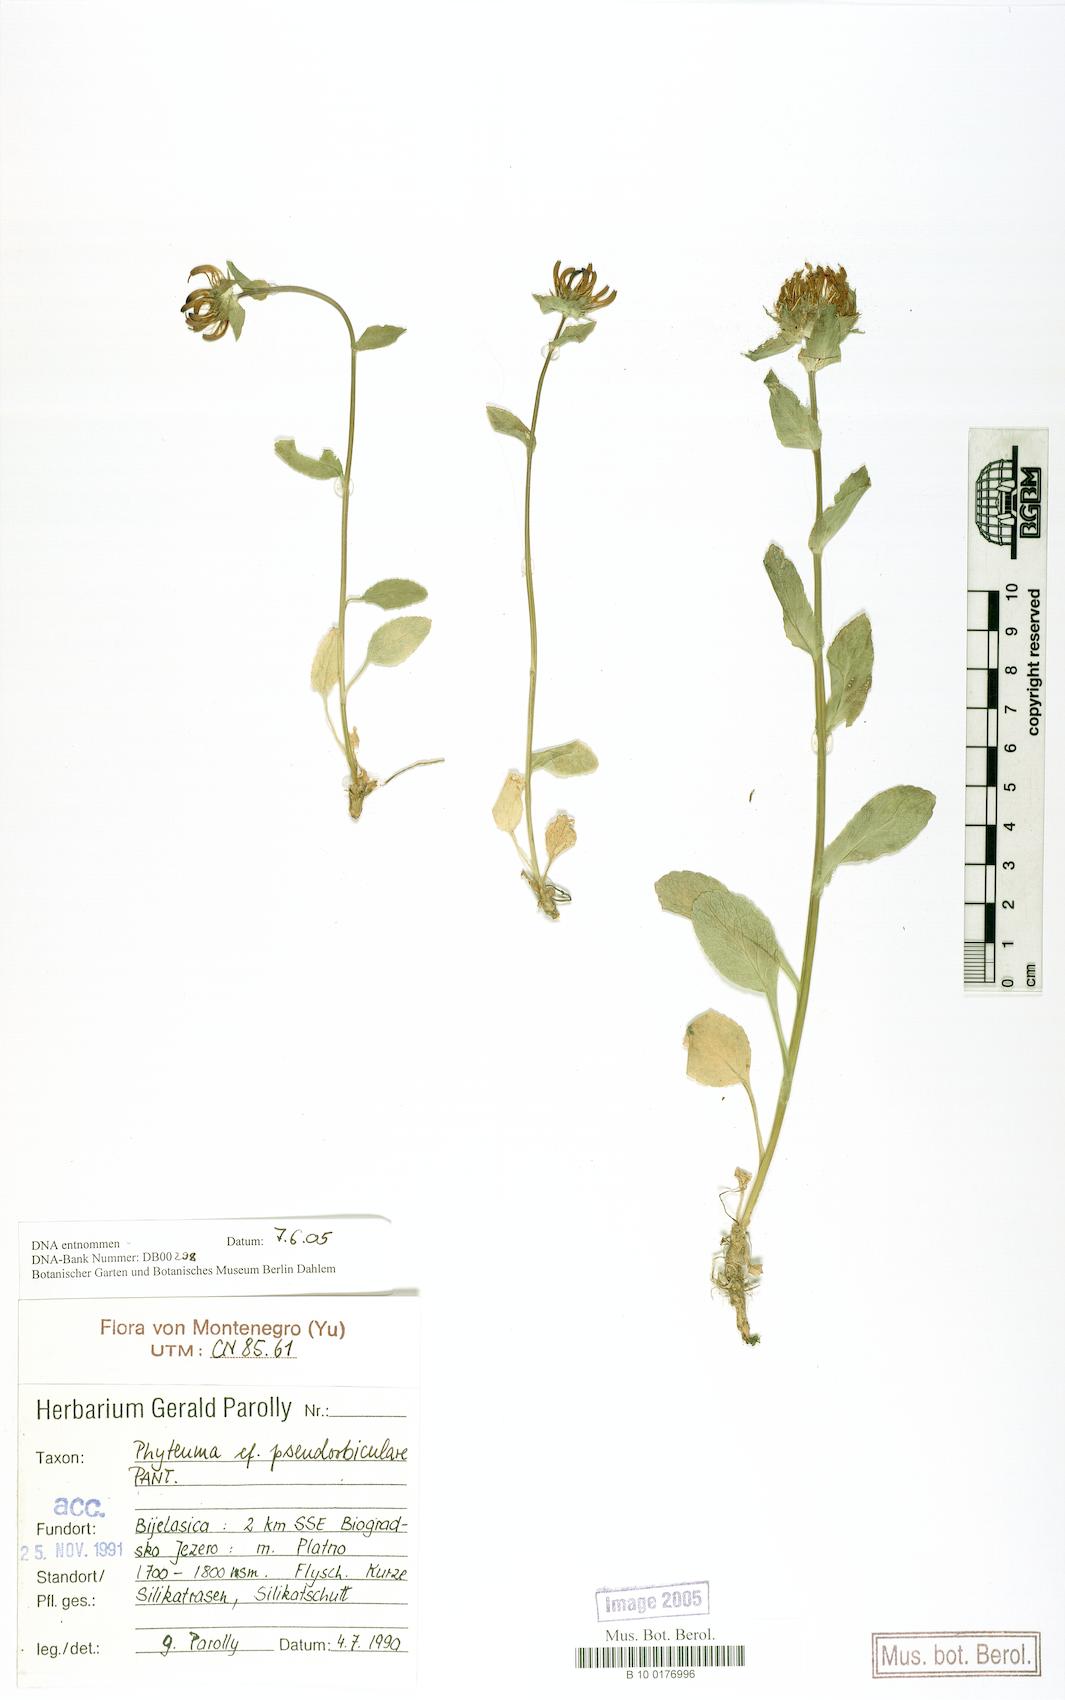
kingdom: Plantae
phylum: Tracheophyta
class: Magnoliopsida
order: Asterales
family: Campanulaceae
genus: Phyteuma
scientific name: Phyteuma pseudo-orbiculare
